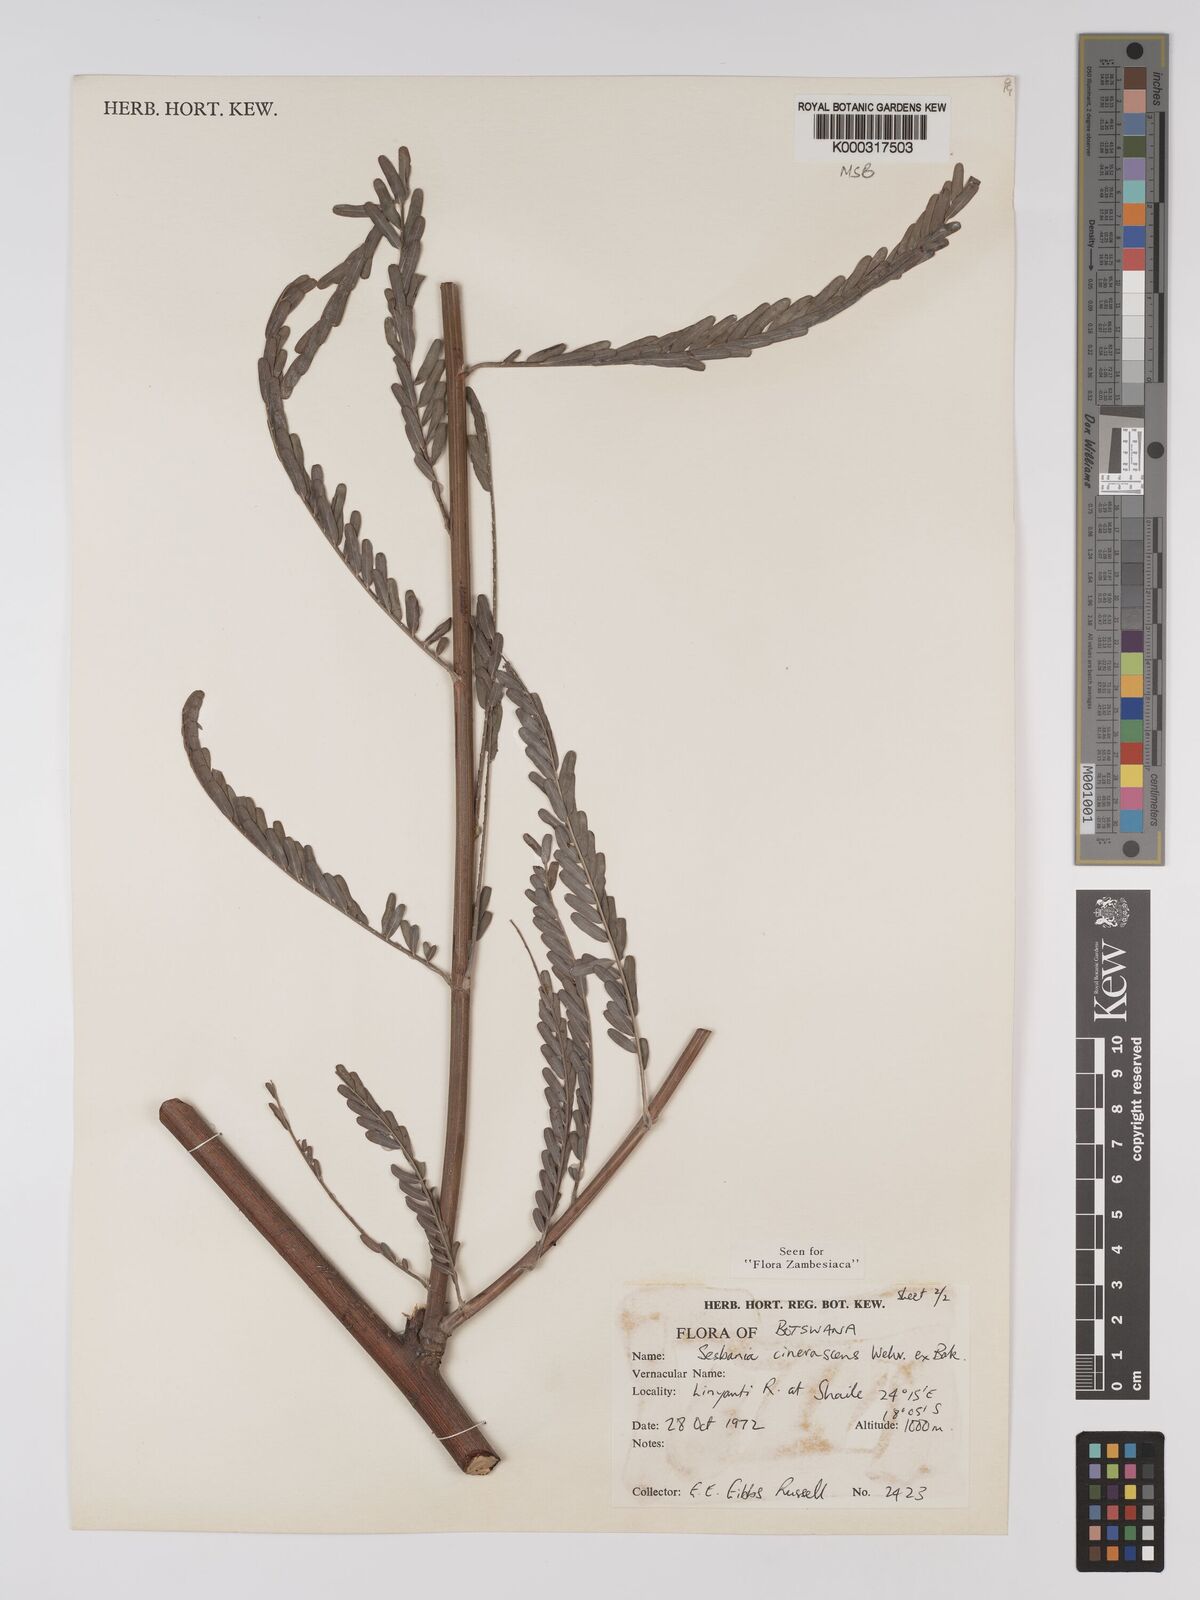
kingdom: Plantae
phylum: Tracheophyta
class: Magnoliopsida
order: Fabales
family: Fabaceae
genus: Sesbania
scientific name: Sesbania cinerascens
